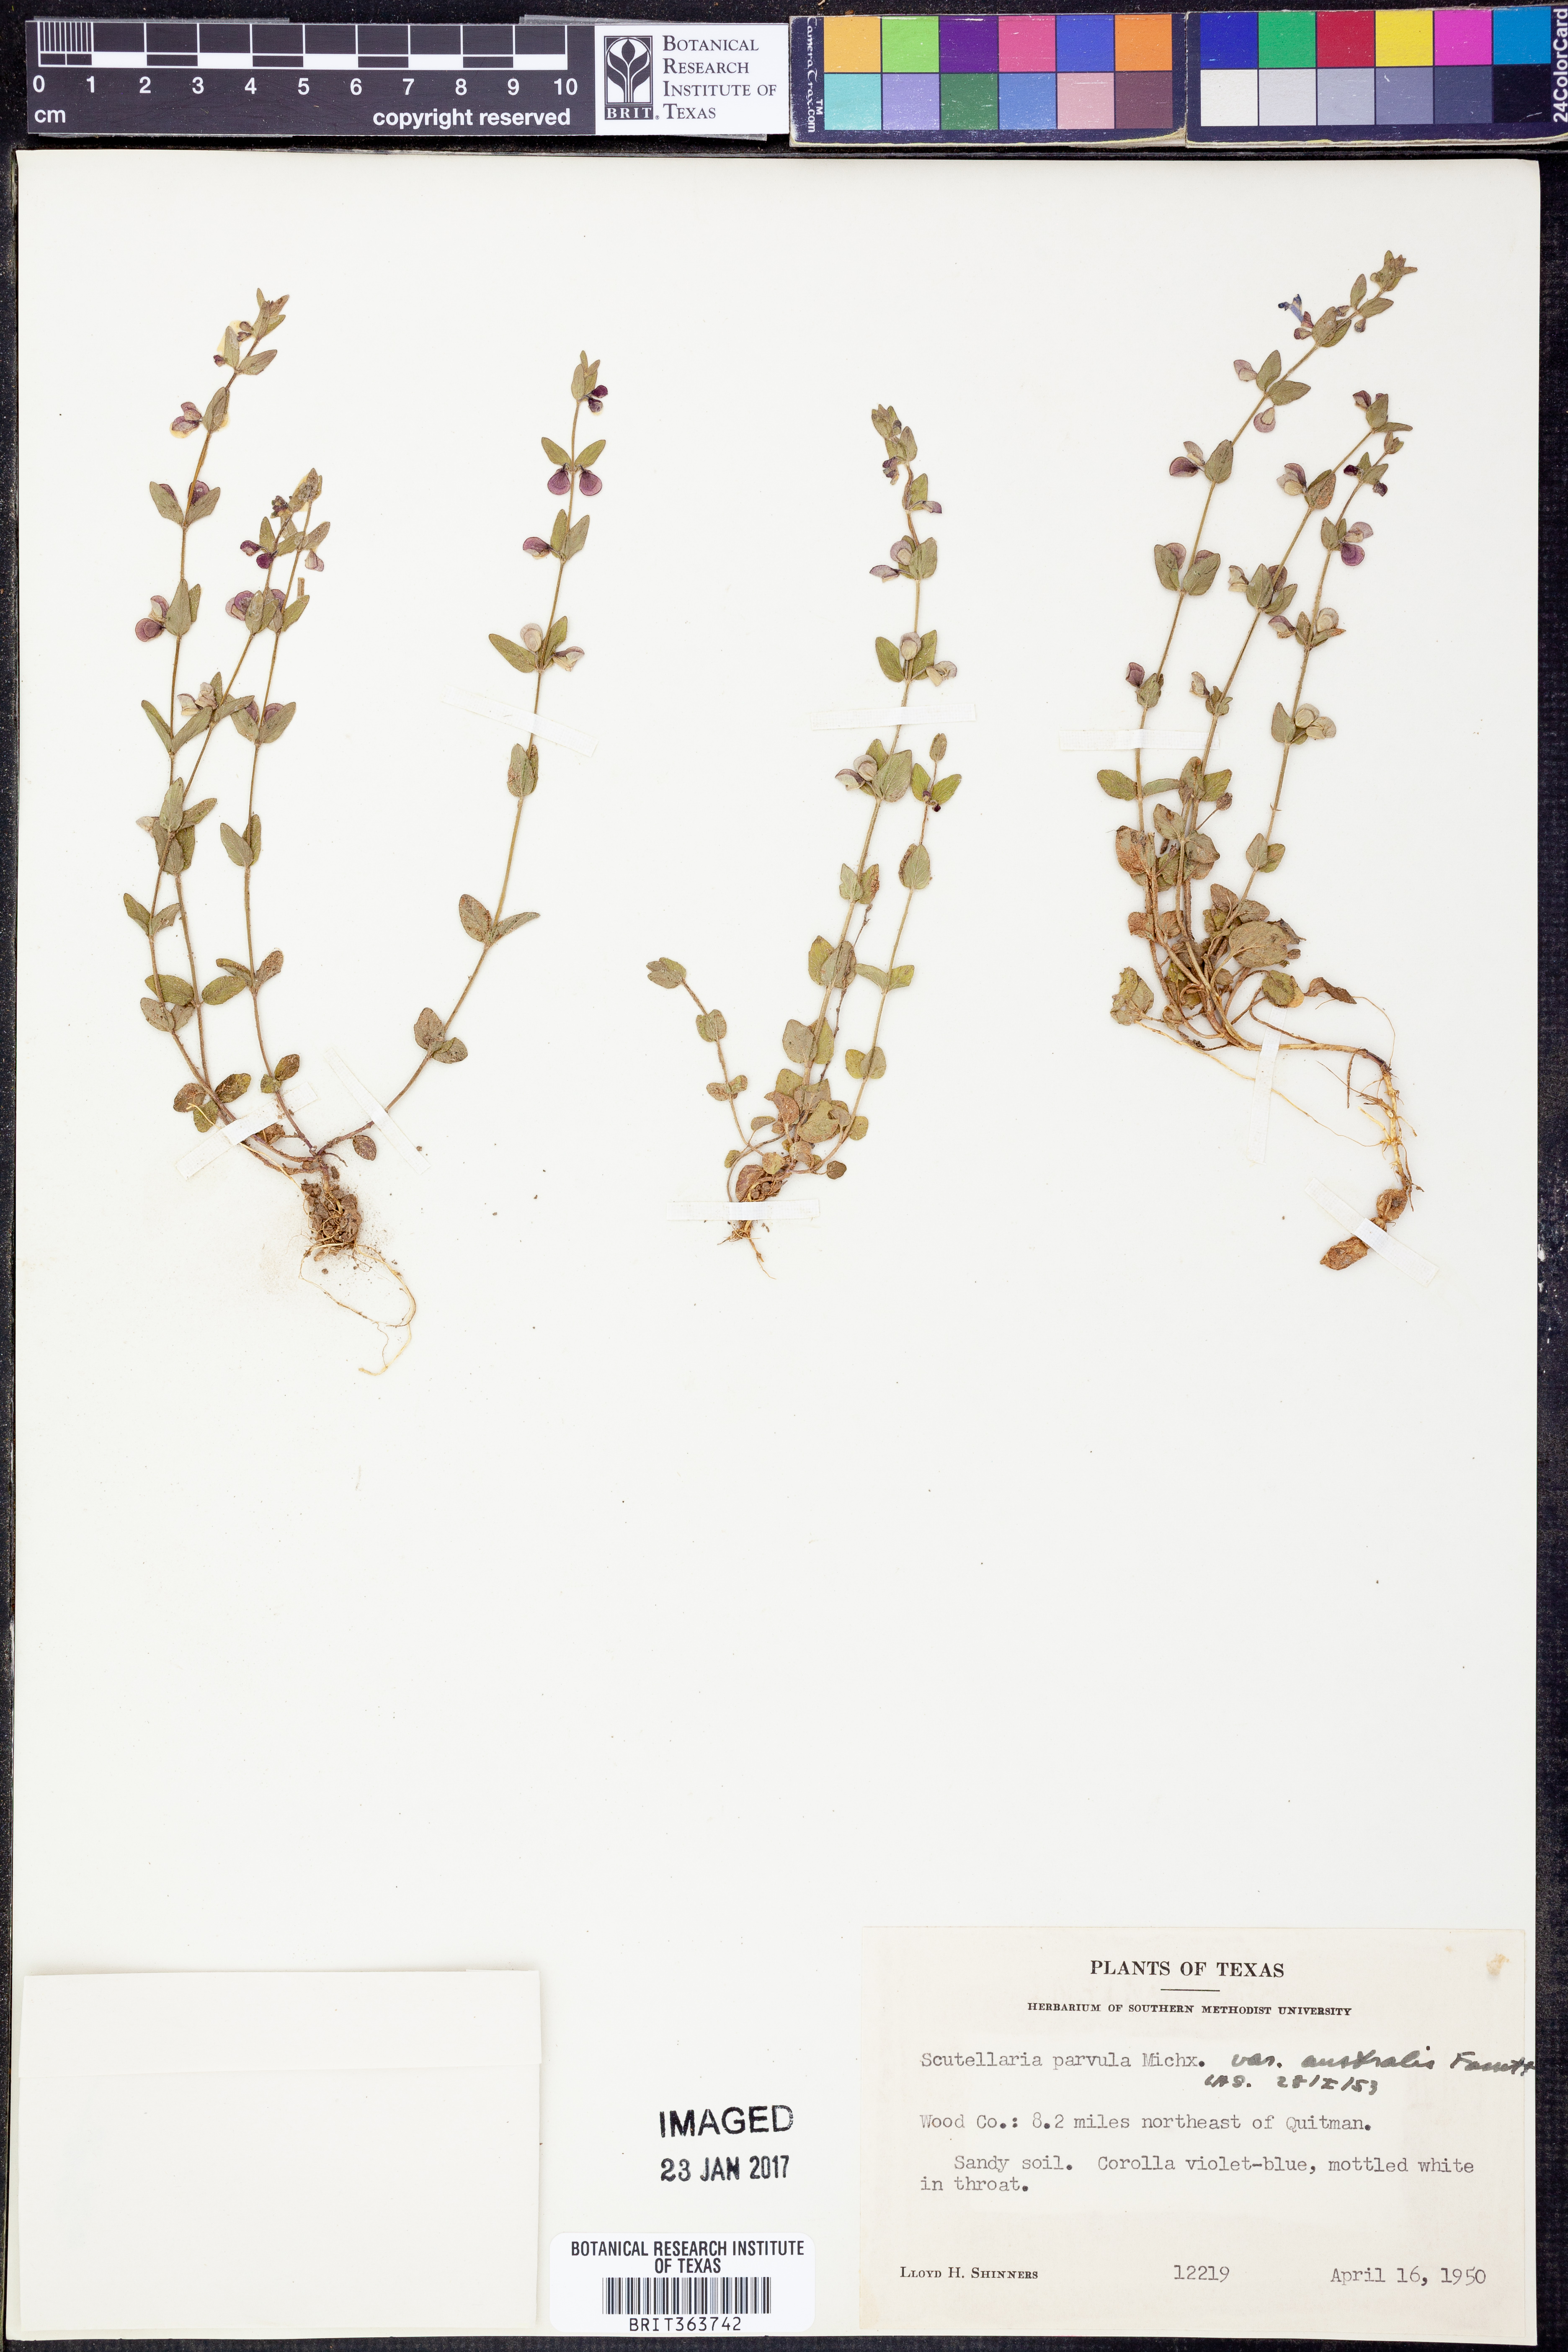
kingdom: Plantae
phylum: Tracheophyta
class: Magnoliopsida
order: Lamiales
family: Lamiaceae
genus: Scutellaria
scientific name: Scutellaria parvula
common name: Little scullcap
